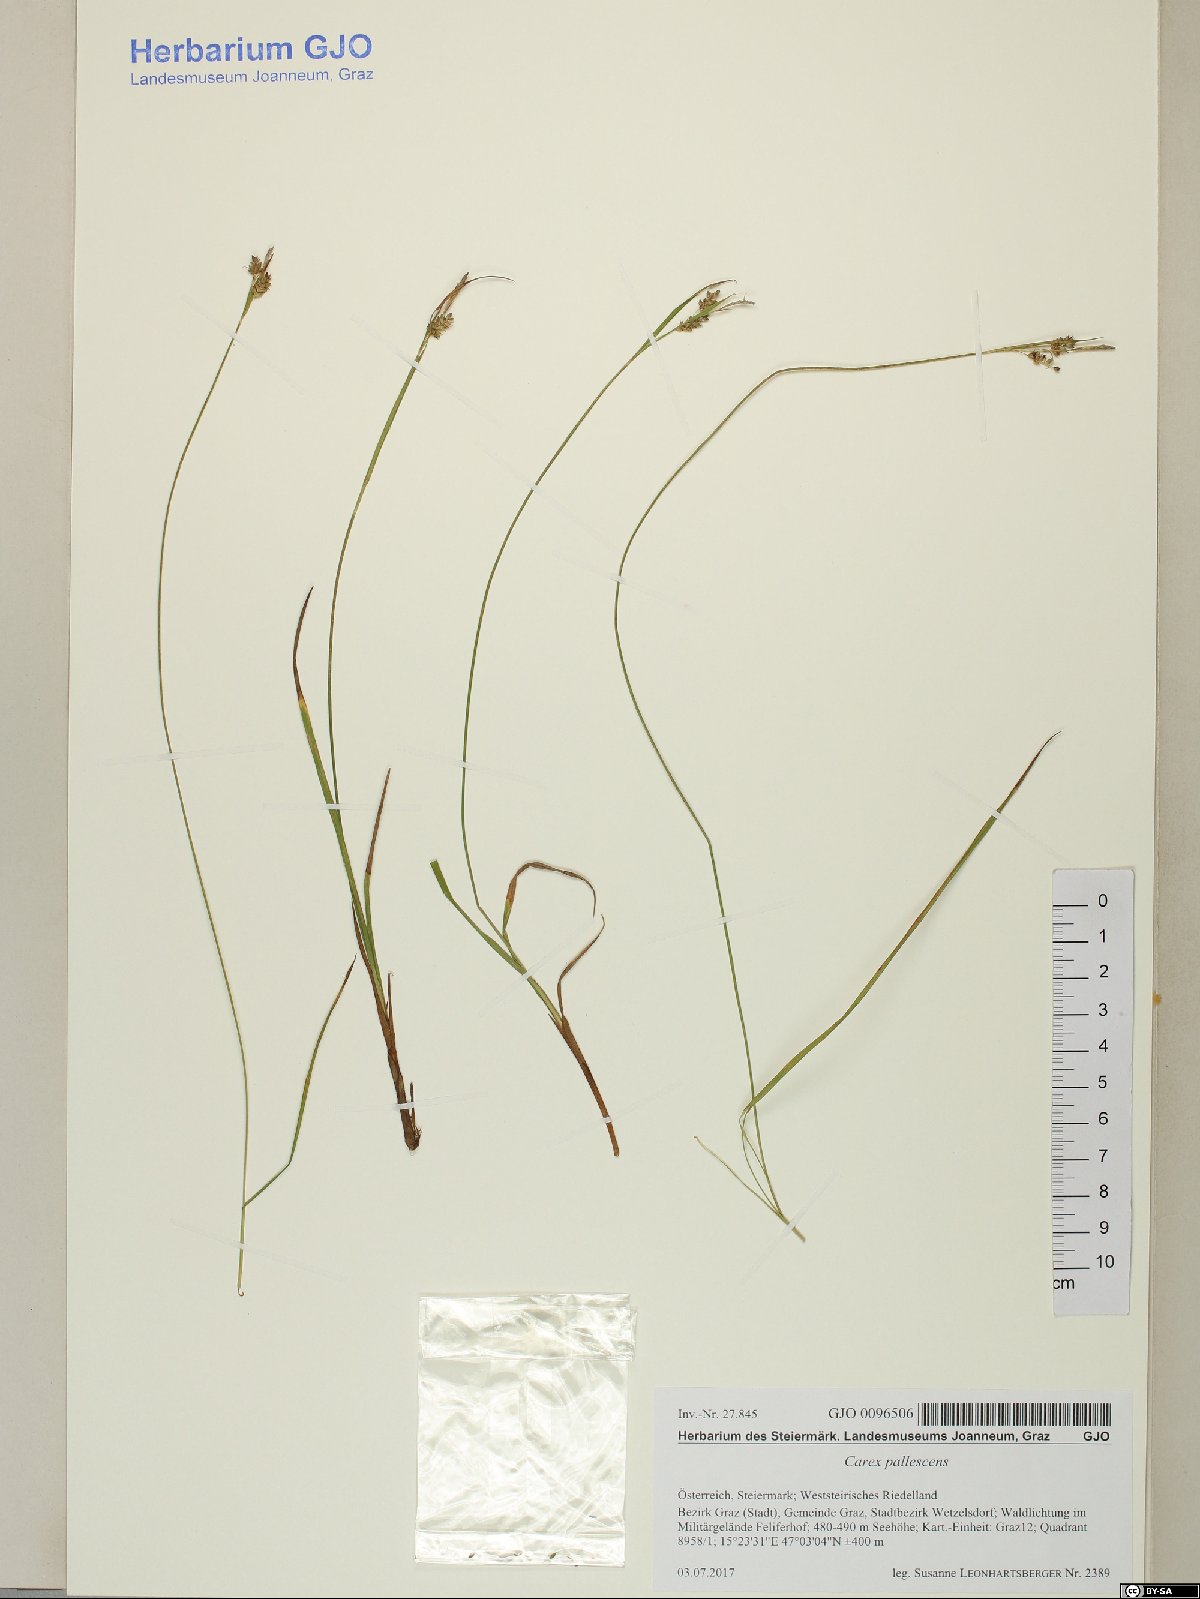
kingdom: Plantae
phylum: Tracheophyta
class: Liliopsida
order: Poales
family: Cyperaceae
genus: Carex
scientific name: Carex pallescens
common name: Pale sedge
